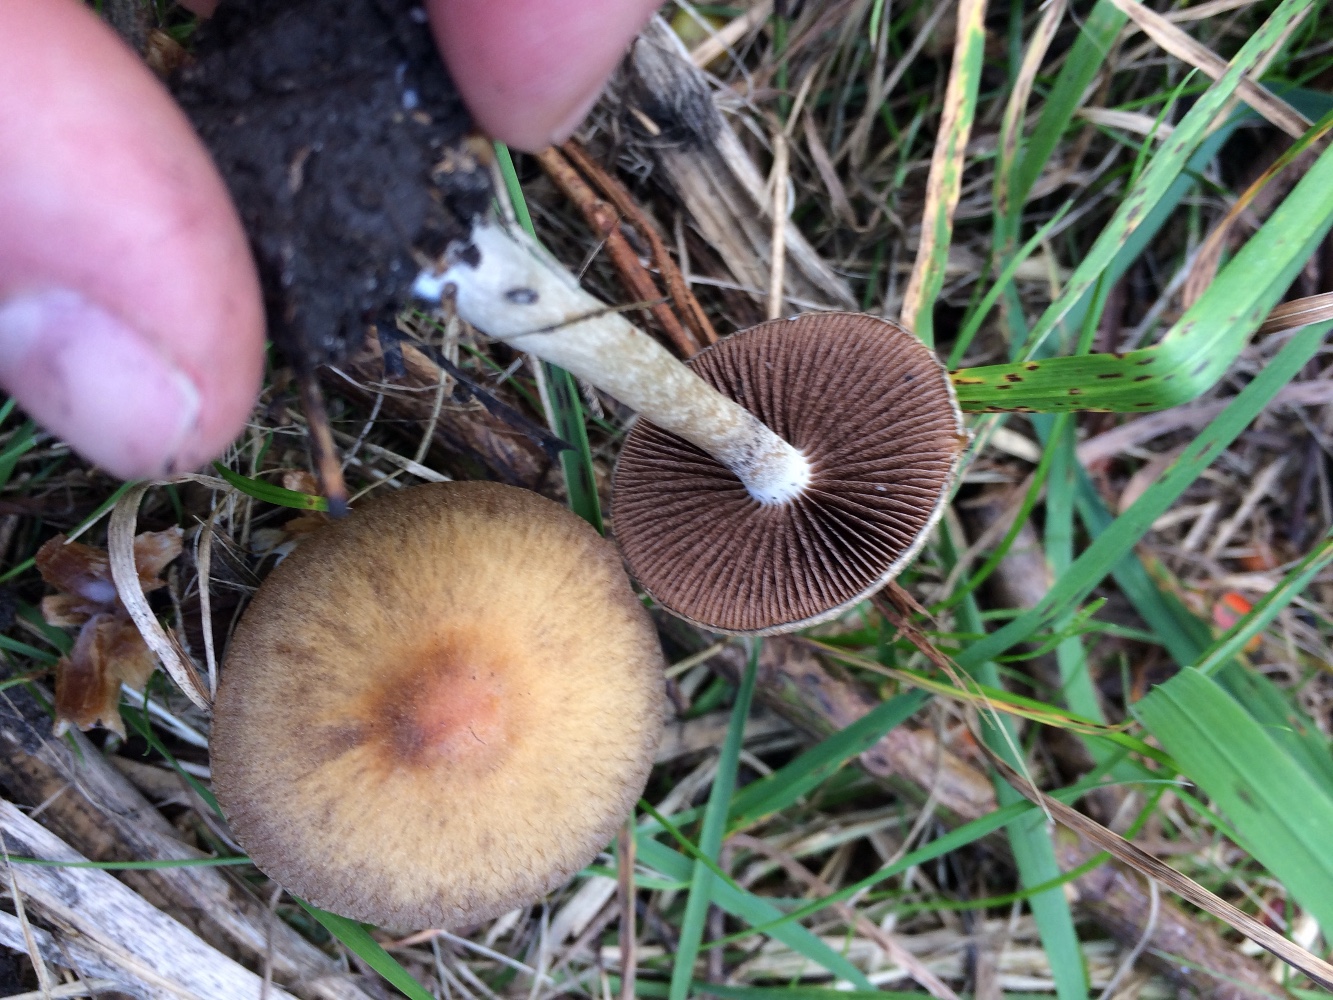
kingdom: Fungi
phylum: Basidiomycota
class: Agaricomycetes
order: Agaricales
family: Psathyrellaceae
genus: Lacrymaria
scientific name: Lacrymaria lacrymabunda
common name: grædende mørkhat
